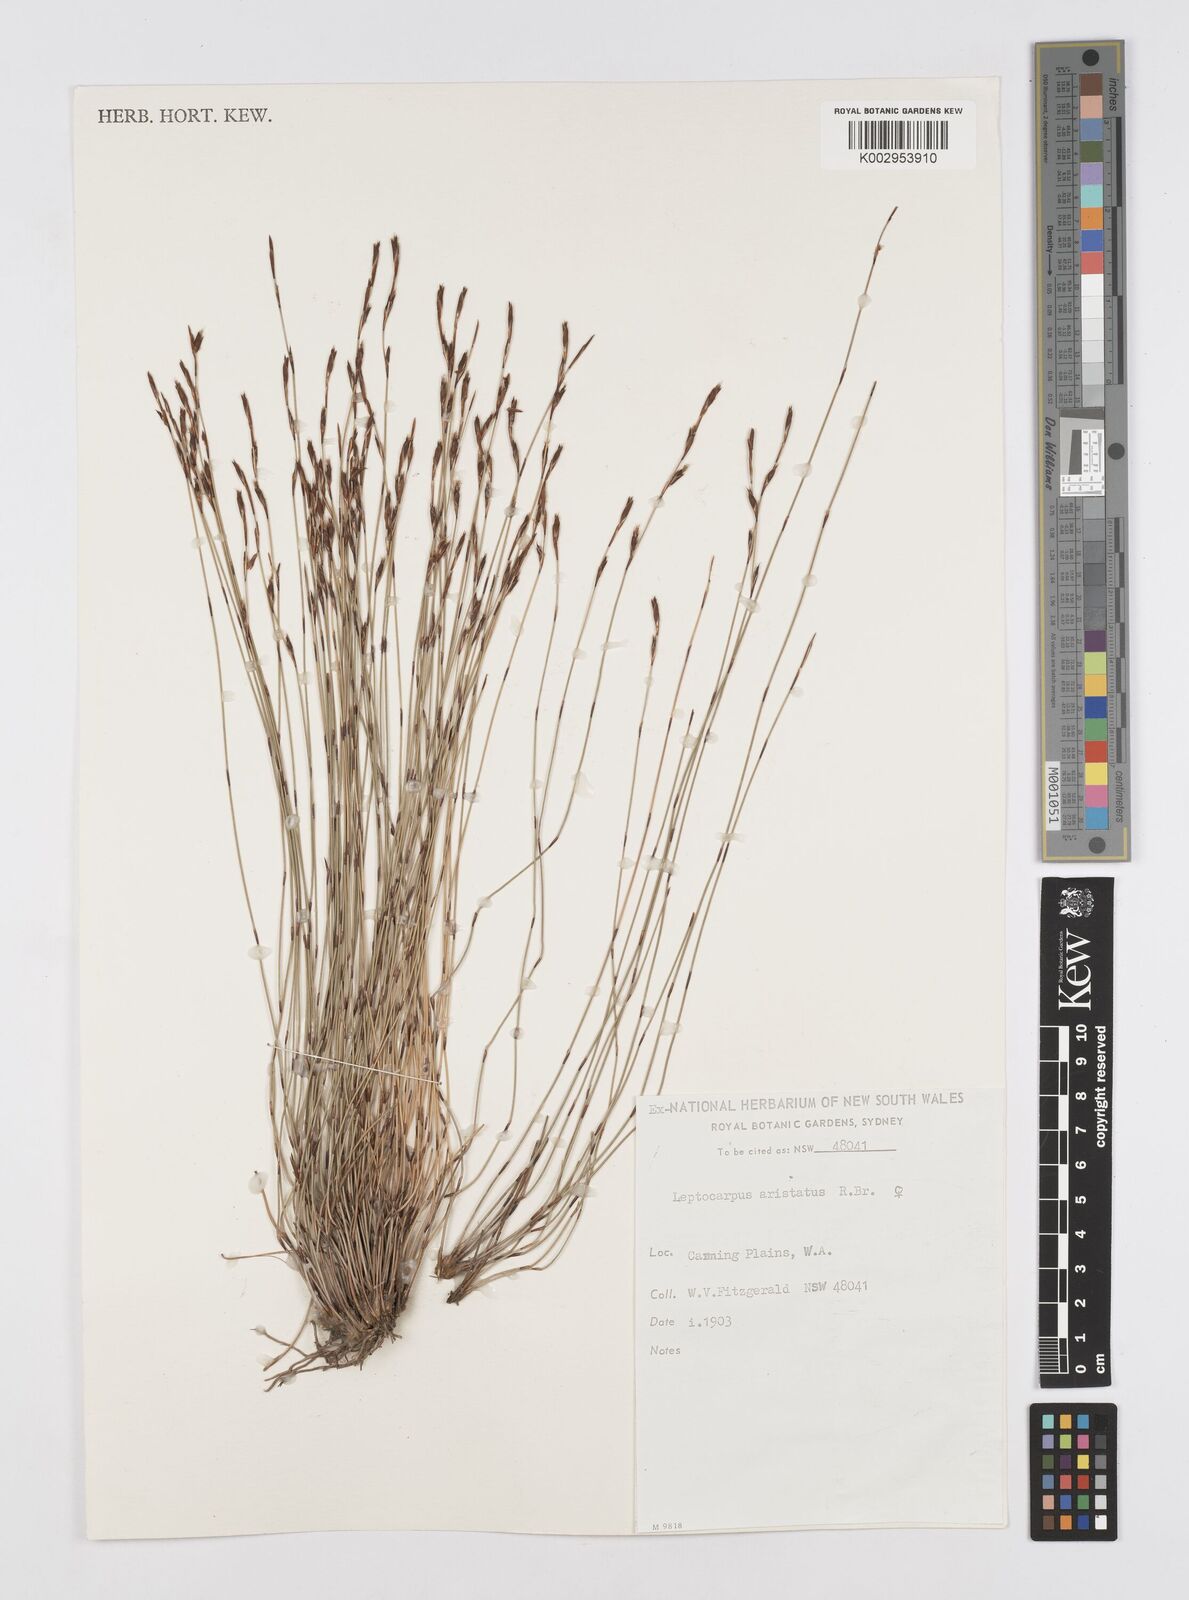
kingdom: Plantae
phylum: Tracheophyta
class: Liliopsida
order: Poales
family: Restionaceae
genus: Chaetanthus
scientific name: Chaetanthus aristatus
